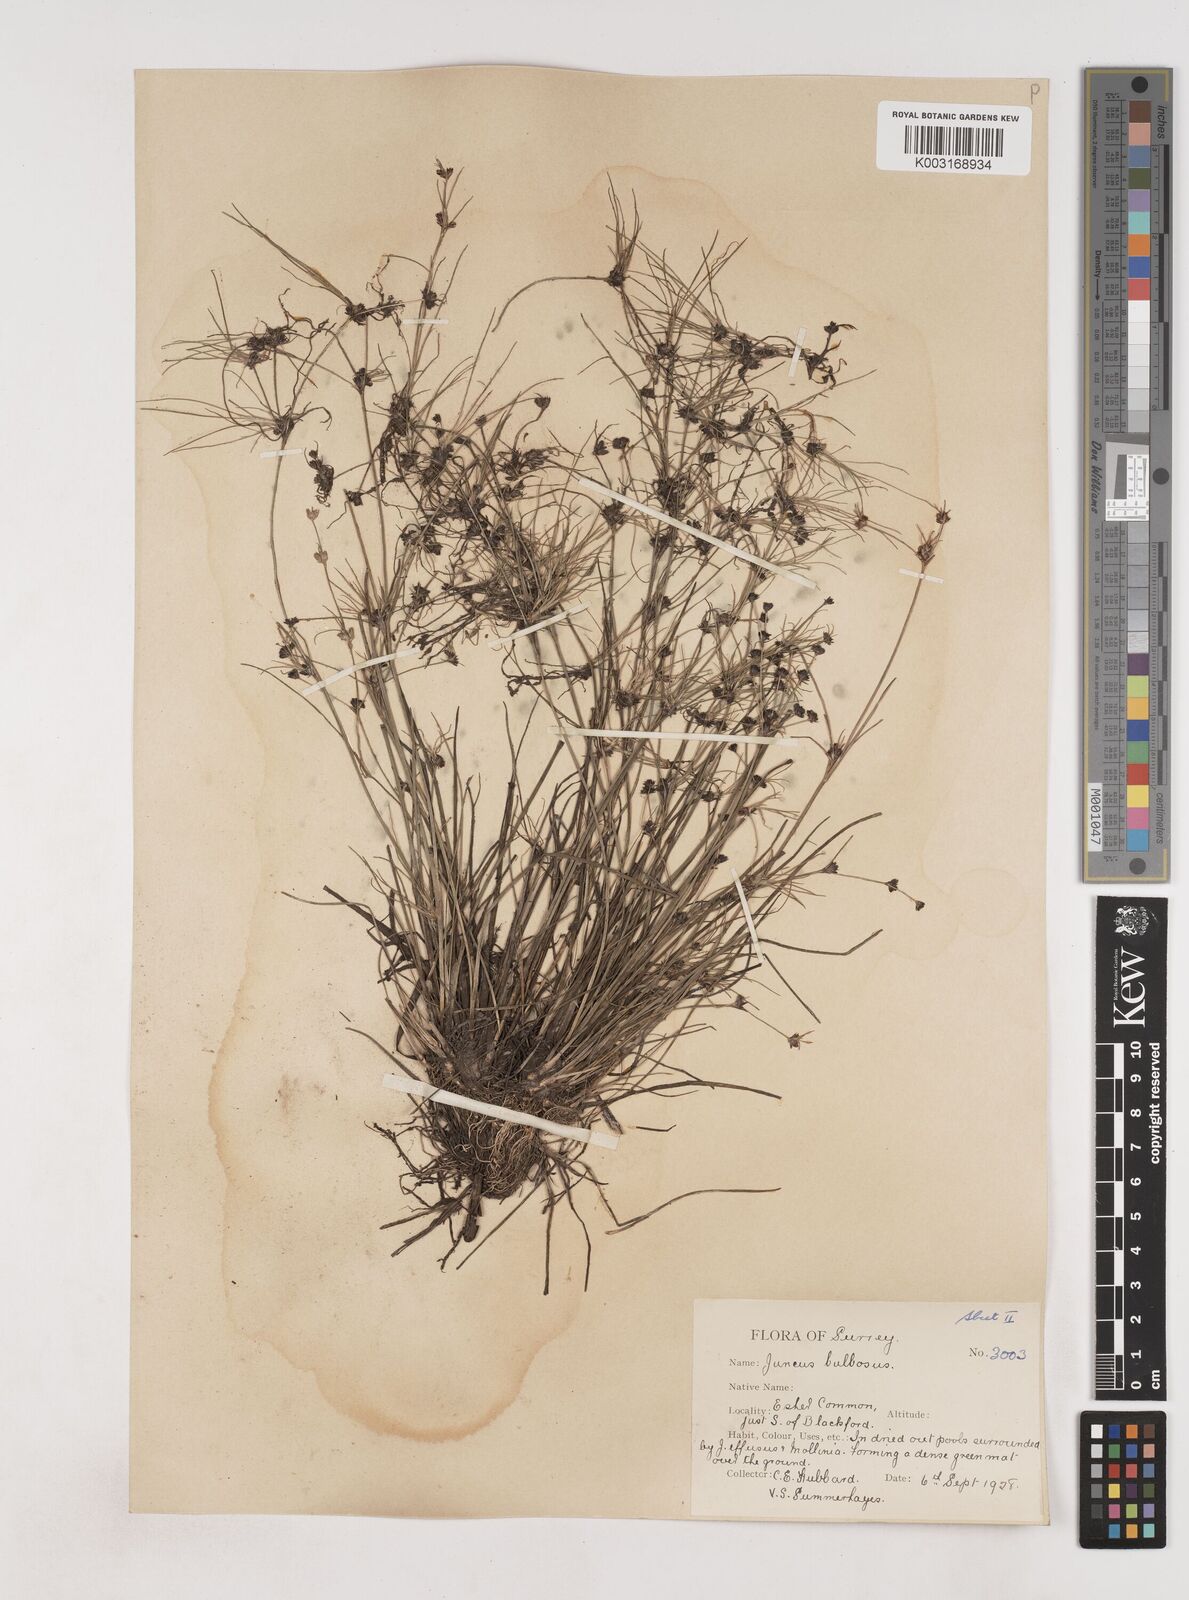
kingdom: Plantae
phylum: Tracheophyta
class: Liliopsida
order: Poales
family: Juncaceae
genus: Juncus
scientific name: Juncus bulbosus
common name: Bulbous rush
